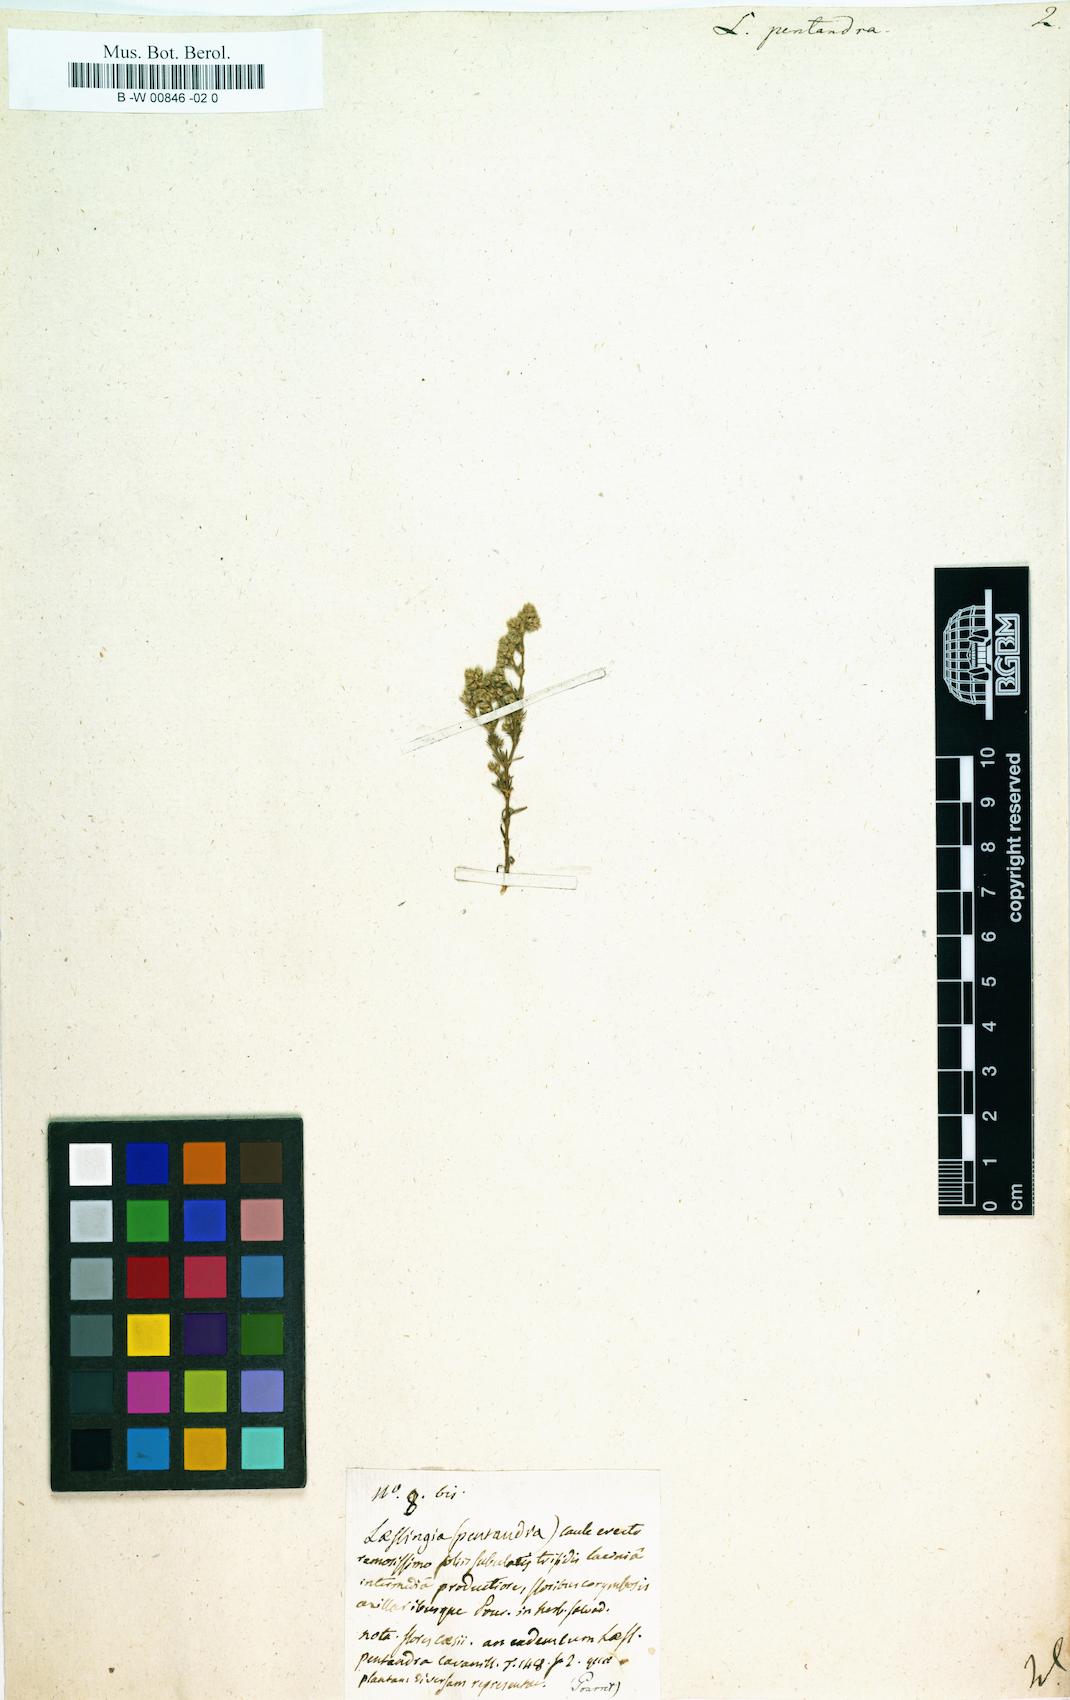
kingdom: Plantae
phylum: Tracheophyta
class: Magnoliopsida
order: Caryophyllales
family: Caryophyllaceae
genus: Loeflingia
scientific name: Loeflingia hispanica
